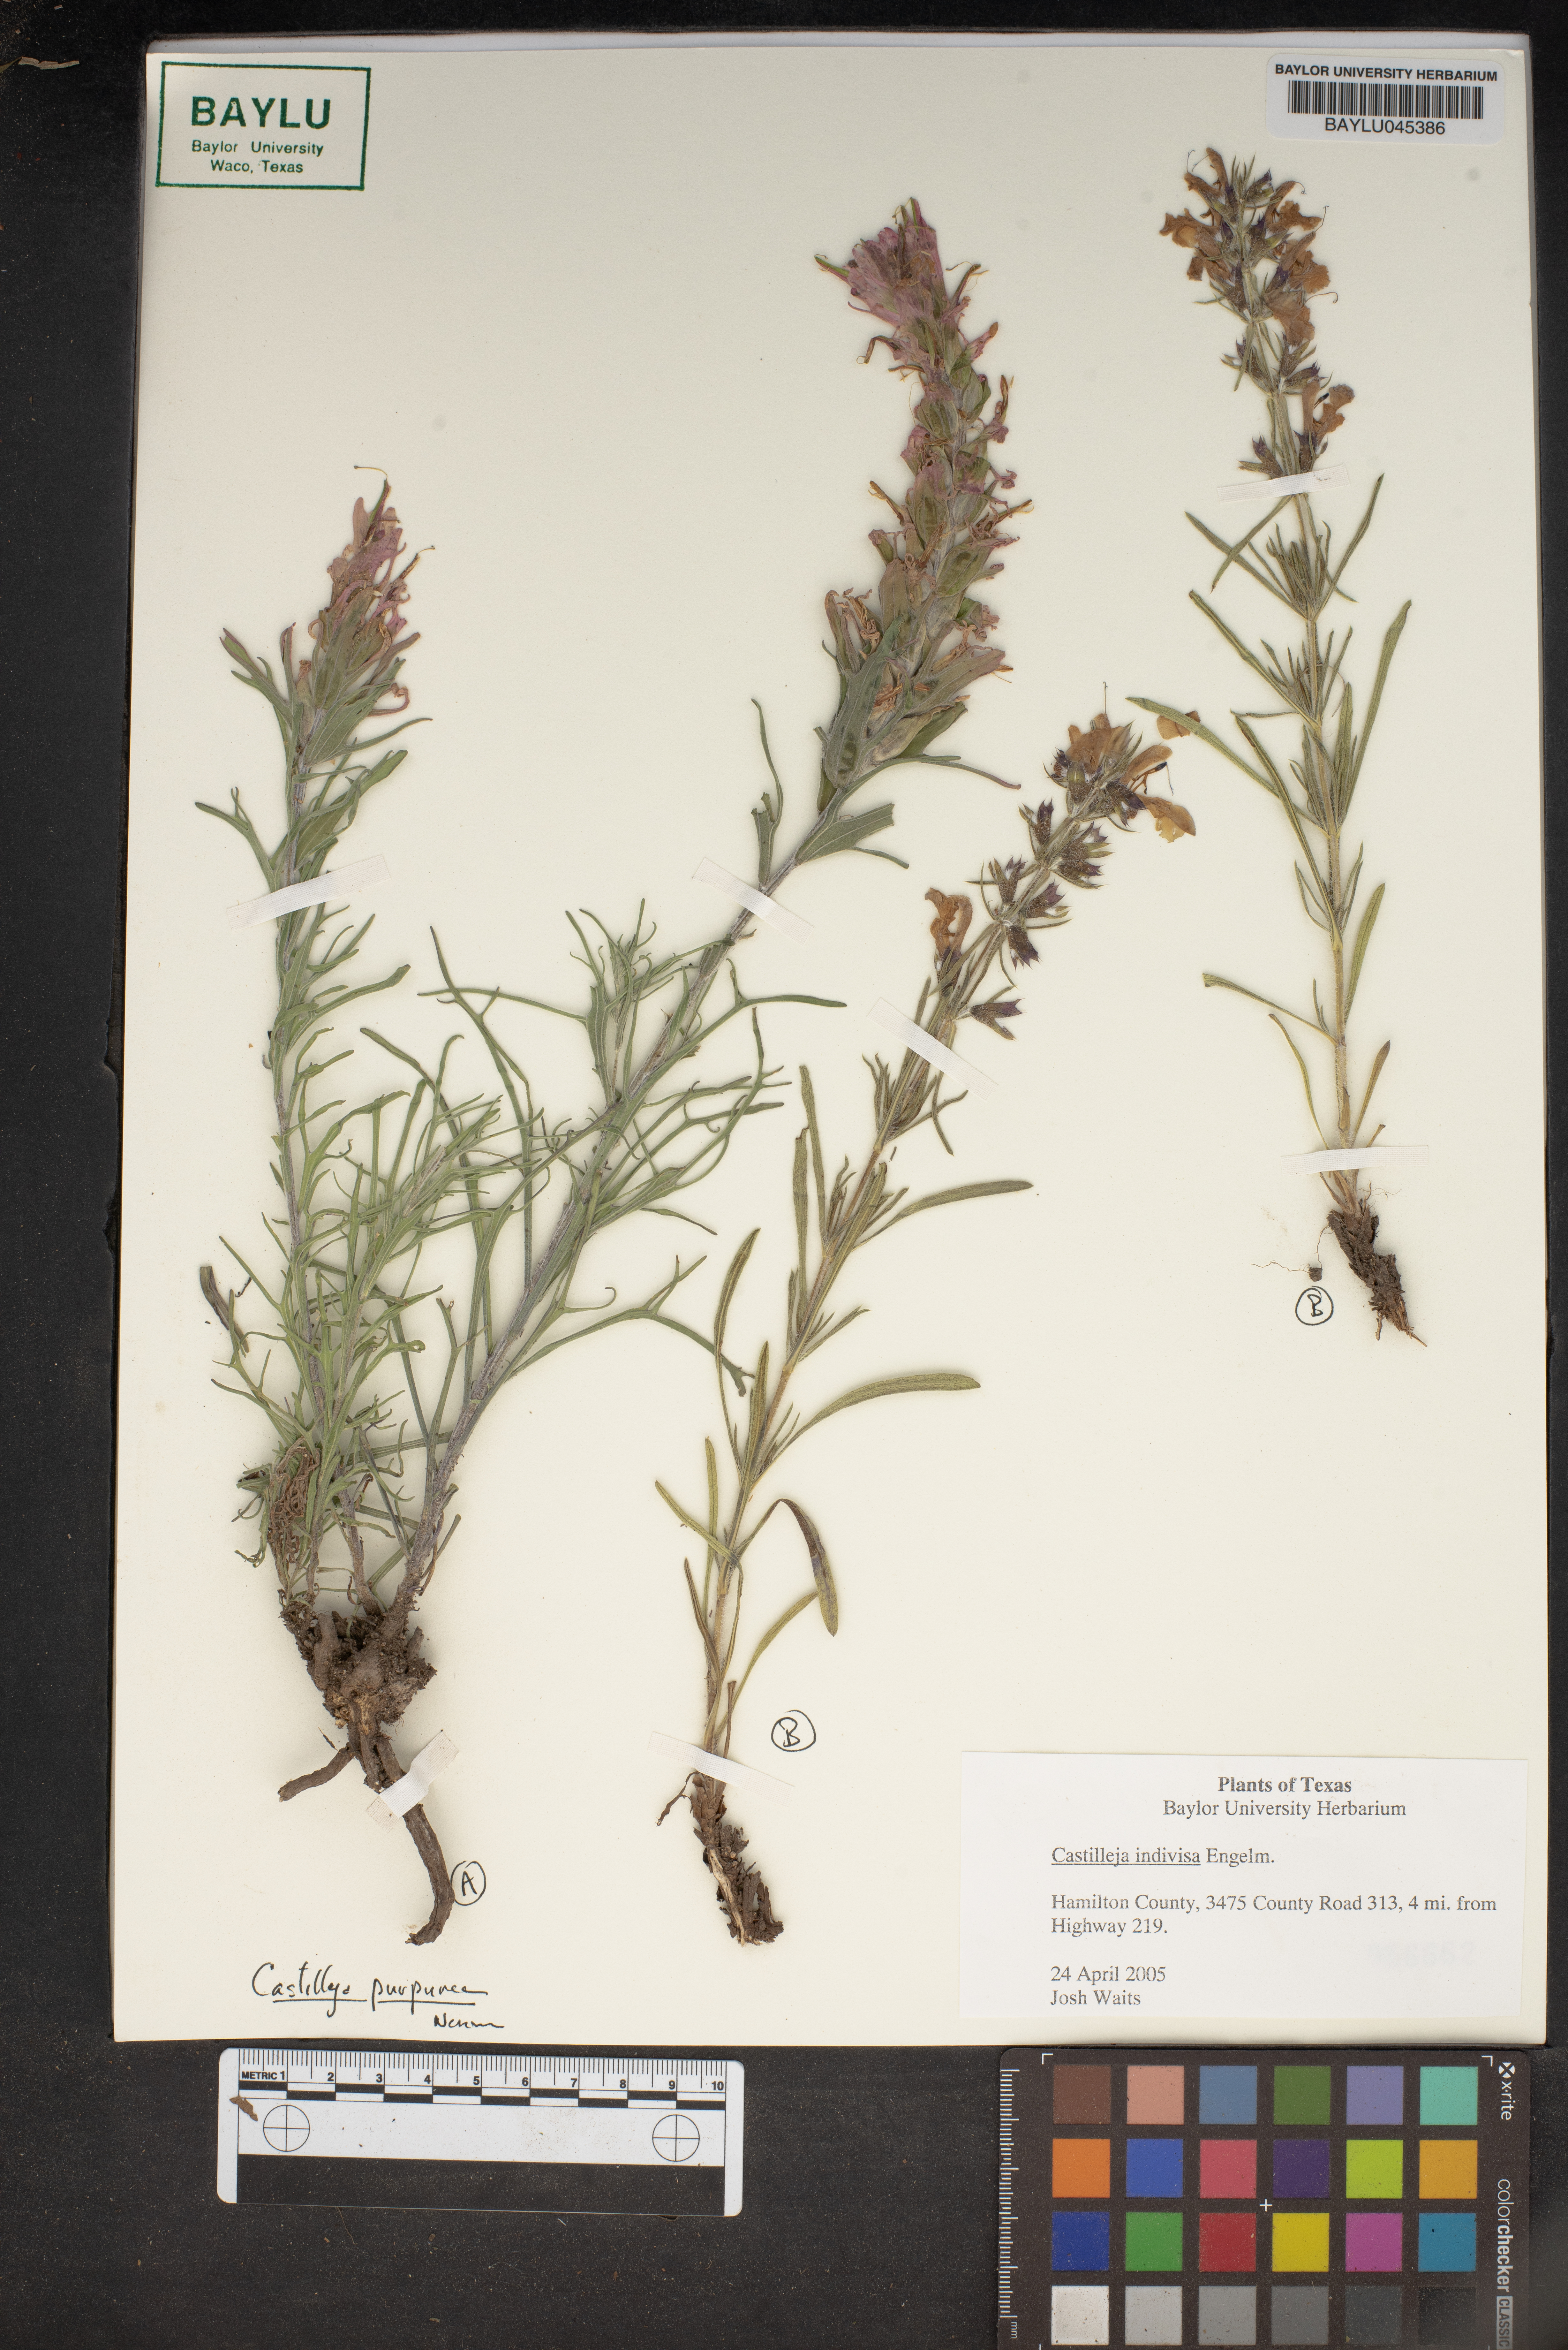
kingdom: Plantae
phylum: Tracheophyta
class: Magnoliopsida
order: Lamiales
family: Orobanchaceae
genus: Castilleja
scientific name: Castilleja indivisa
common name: Texas paintbrush
